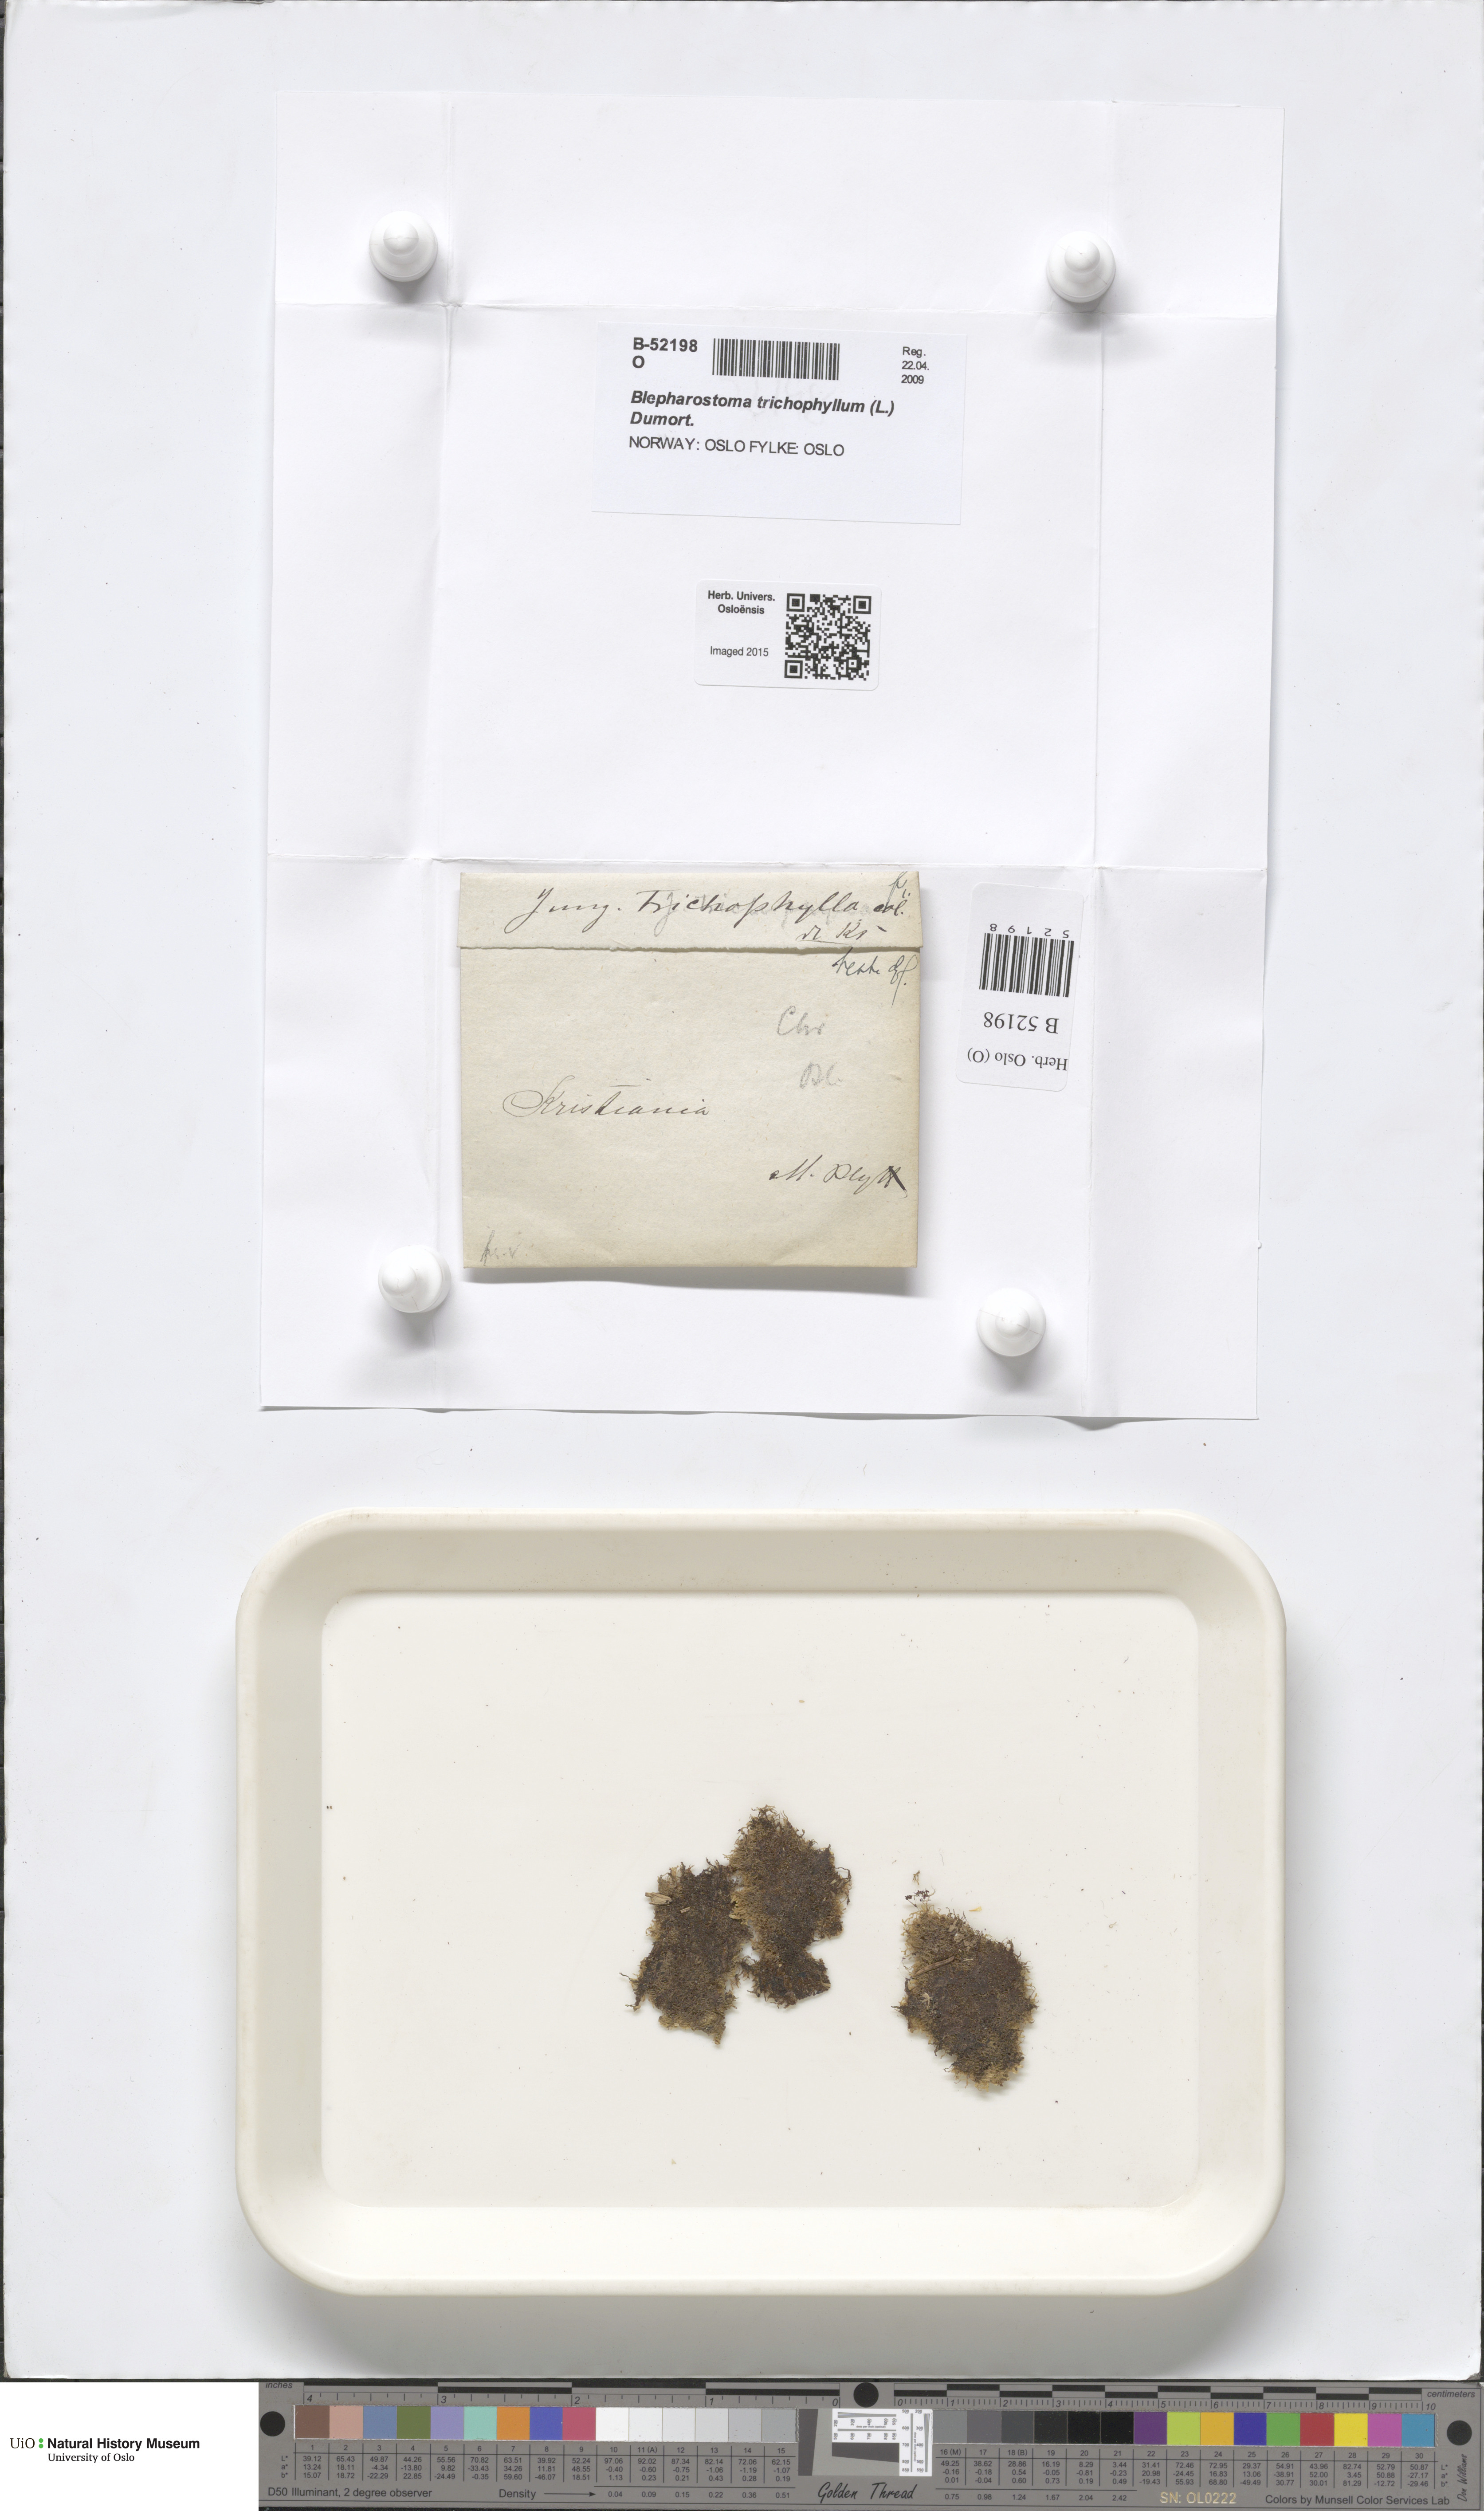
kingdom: Plantae
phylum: Marchantiophyta
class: Jungermanniopsida
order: Jungermanniales
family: Blepharostomataceae
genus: Blepharostoma
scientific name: Blepharostoma trichophyllum
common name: Hairy threadwort
